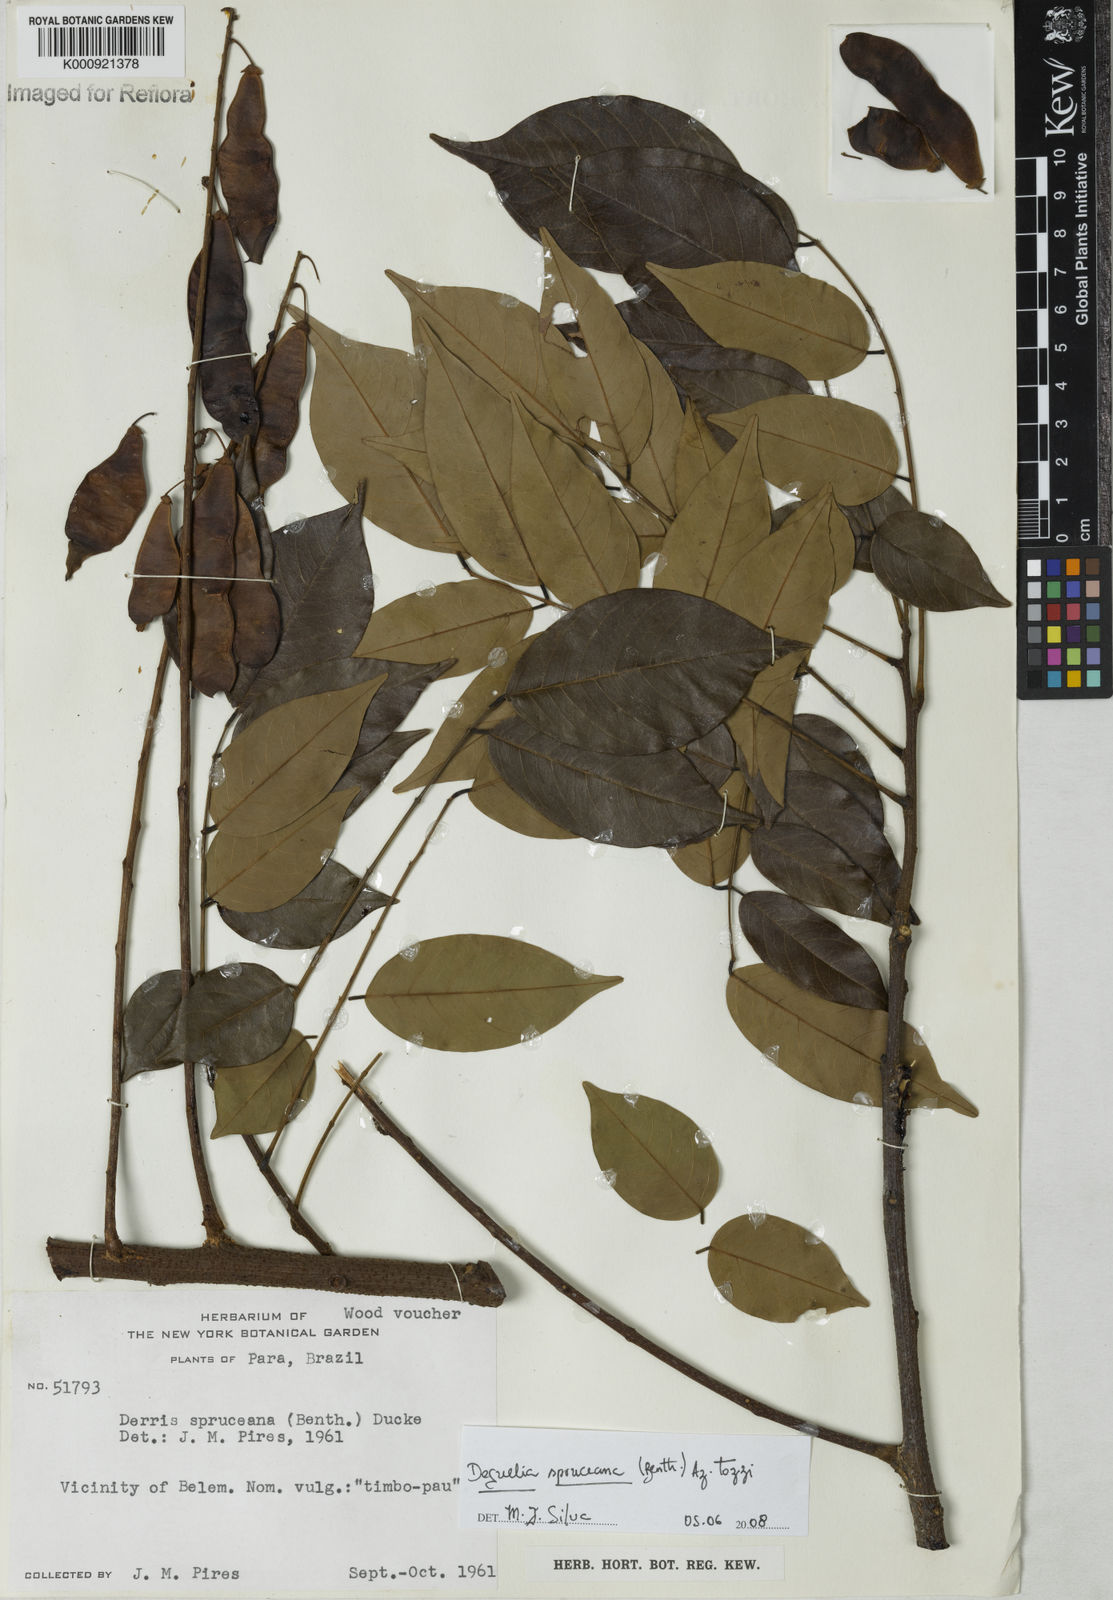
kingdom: Plantae
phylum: Tracheophyta
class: Magnoliopsida
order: Fabales
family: Fabaceae
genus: Deguelia
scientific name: Deguelia spruceana
